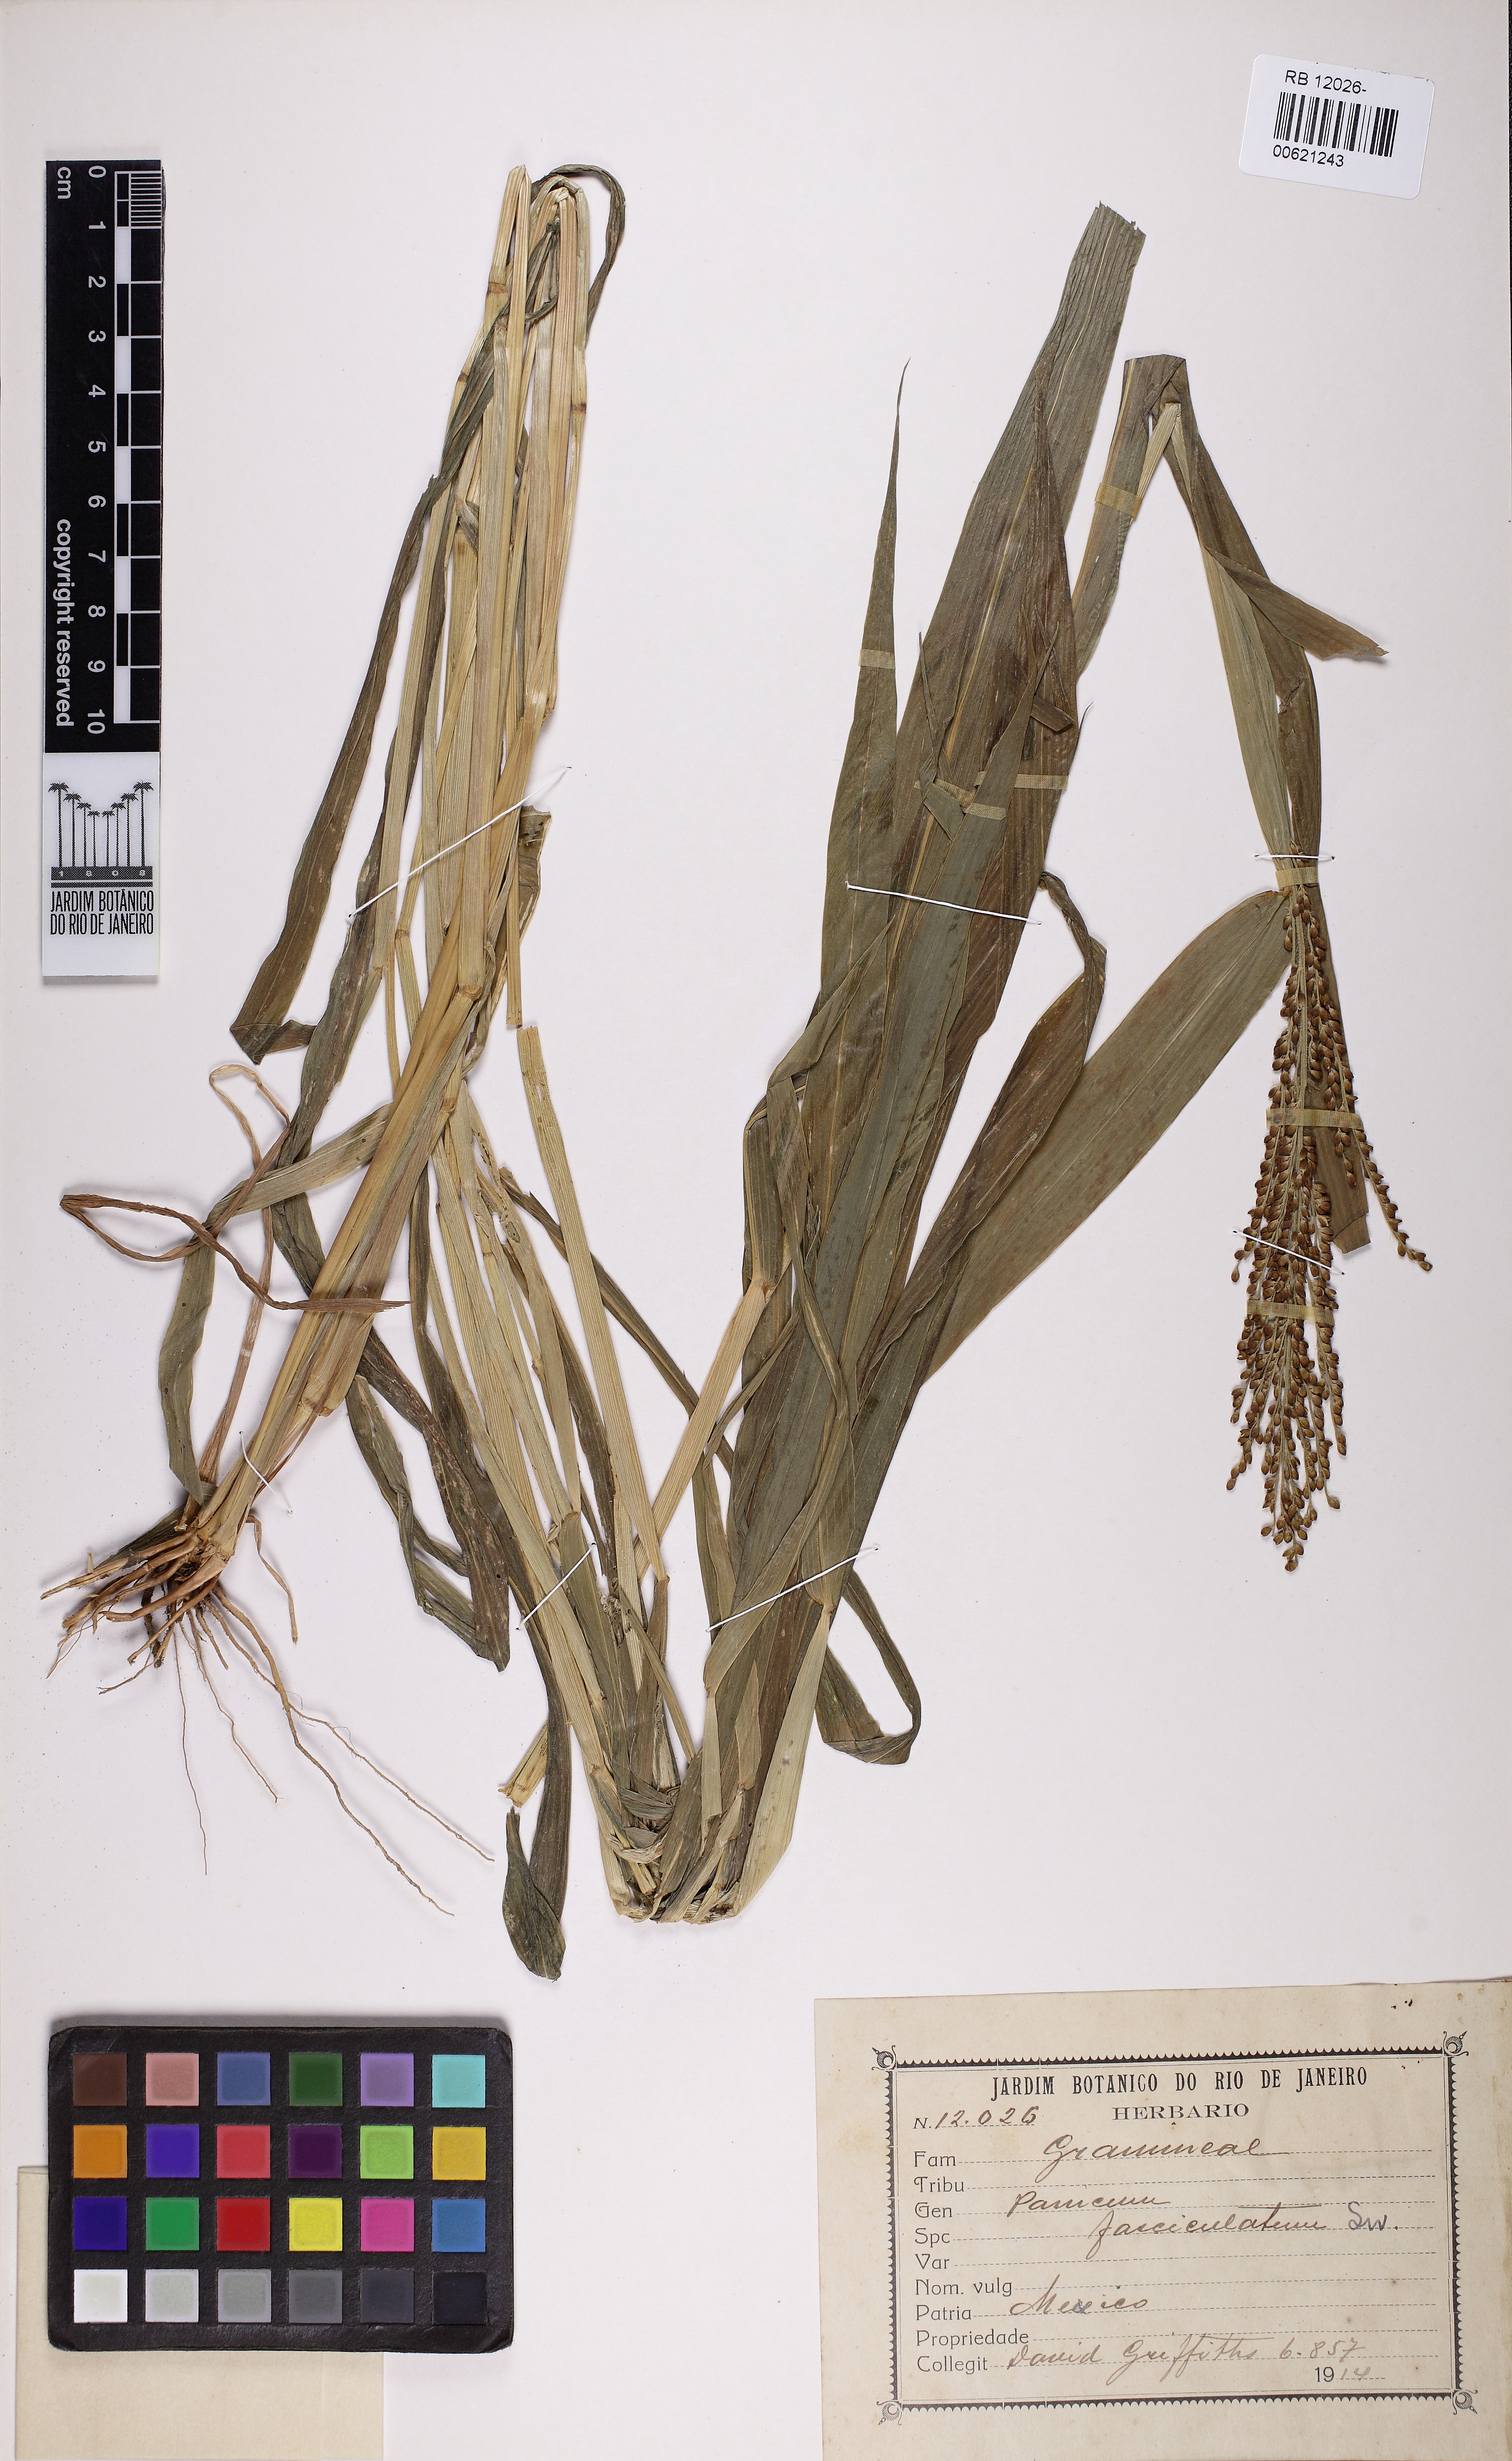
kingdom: Plantae
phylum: Tracheophyta
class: Liliopsida
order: Poales
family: Poaceae
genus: Urochloa
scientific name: Urochloa fusca
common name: Browntop signal grass
